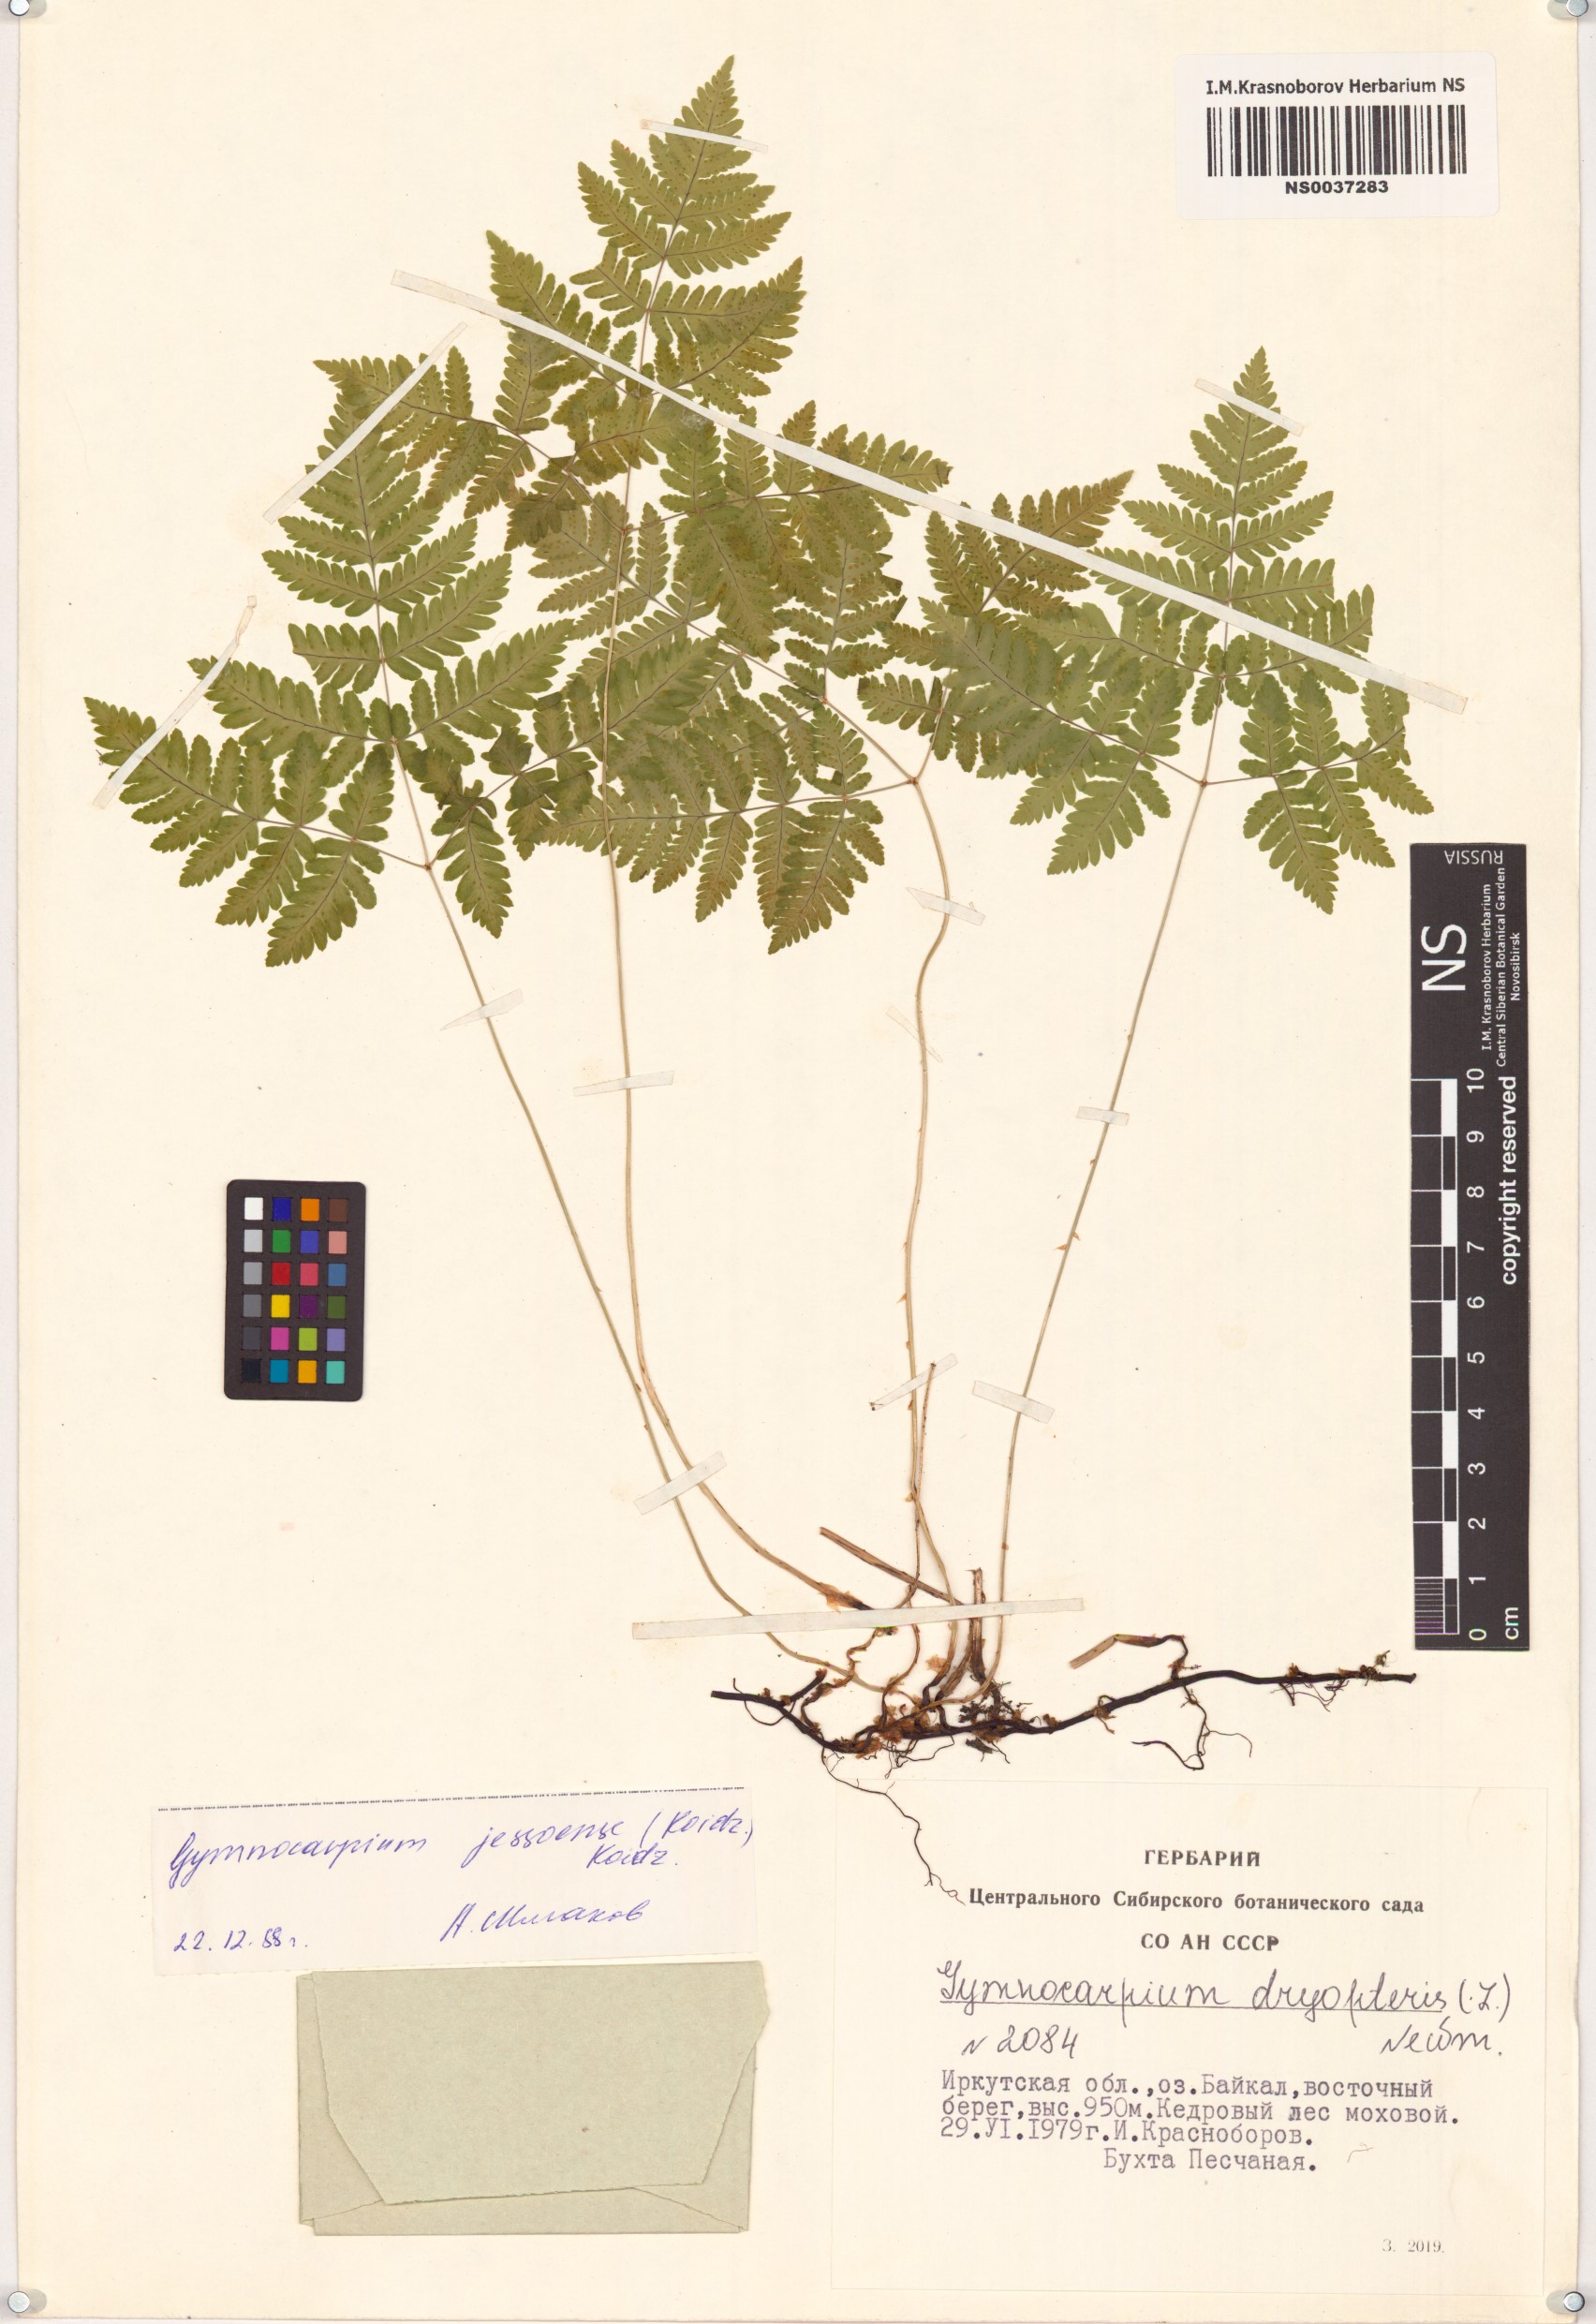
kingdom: Plantae
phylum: Tracheophyta
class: Polypodiopsida
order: Polypodiales
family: Cystopteridaceae
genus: Gymnocarpium
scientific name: Gymnocarpium jessoense
